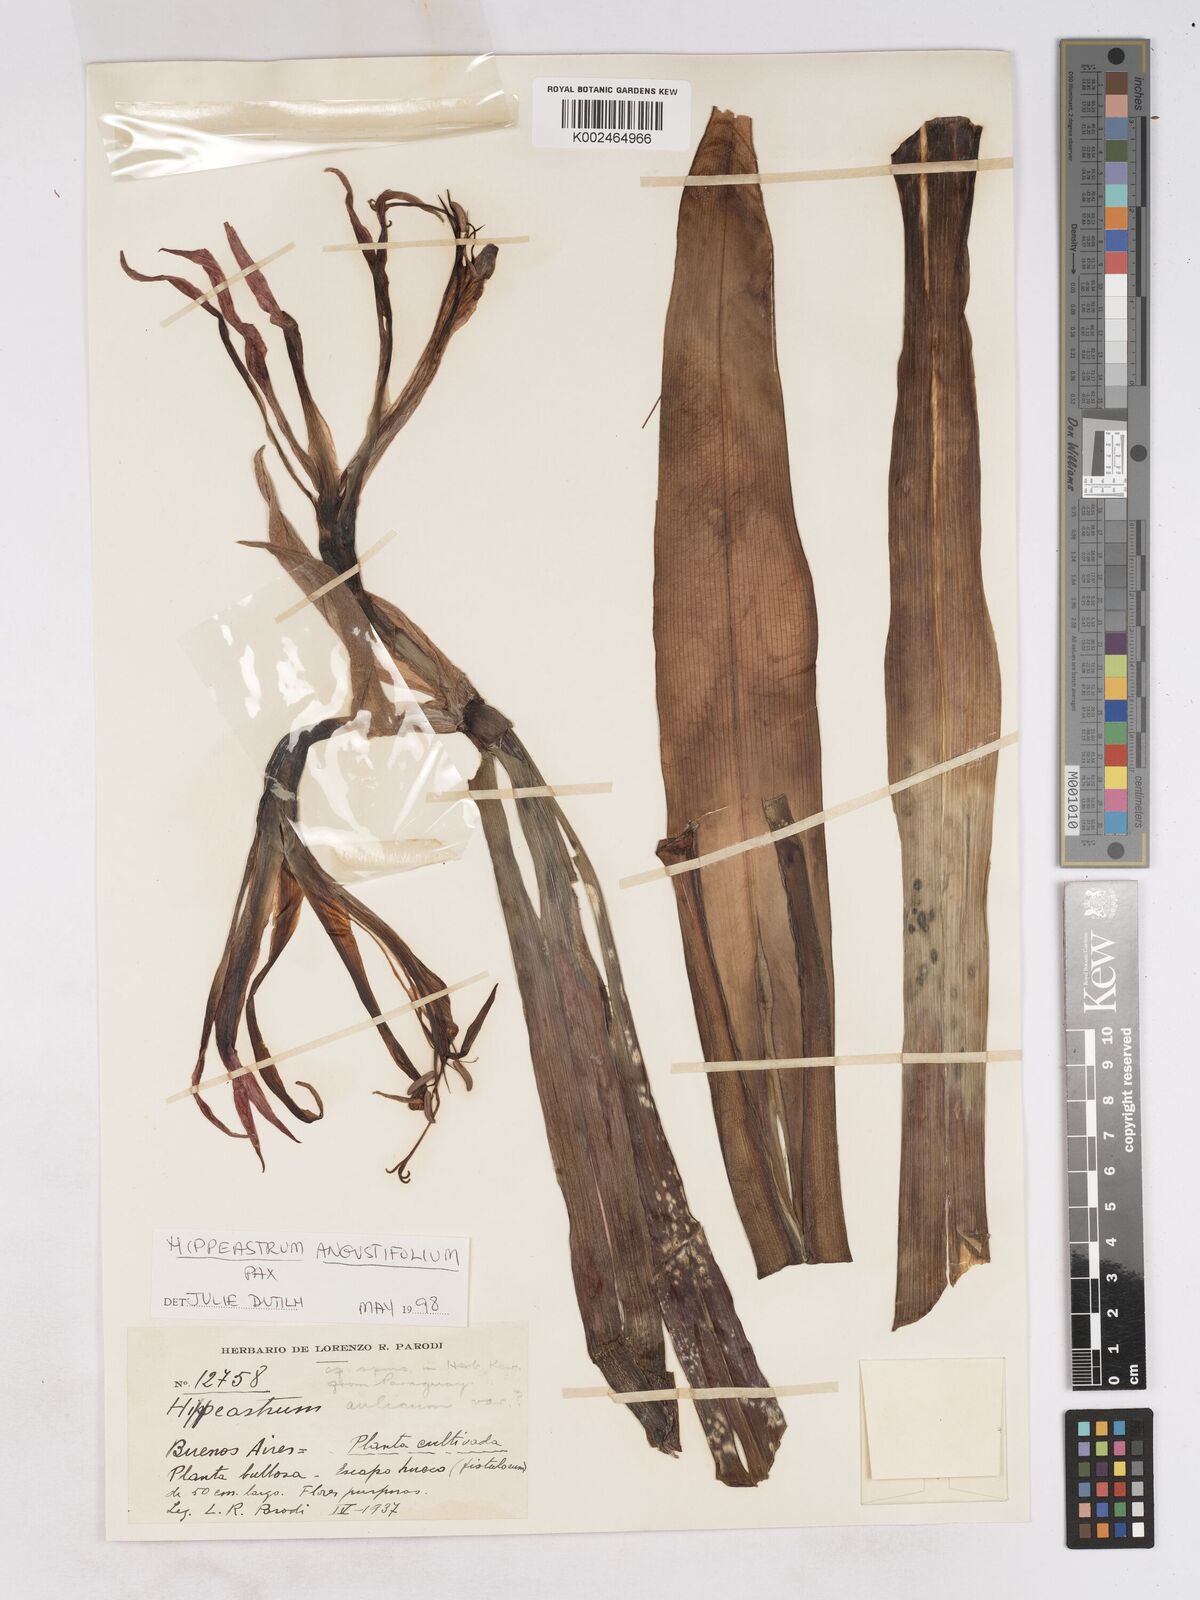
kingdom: Plantae
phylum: Tracheophyta
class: Liliopsida
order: Asparagales
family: Amaryllidaceae
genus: Hippeastrum
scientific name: Hippeastrum angustifolium
